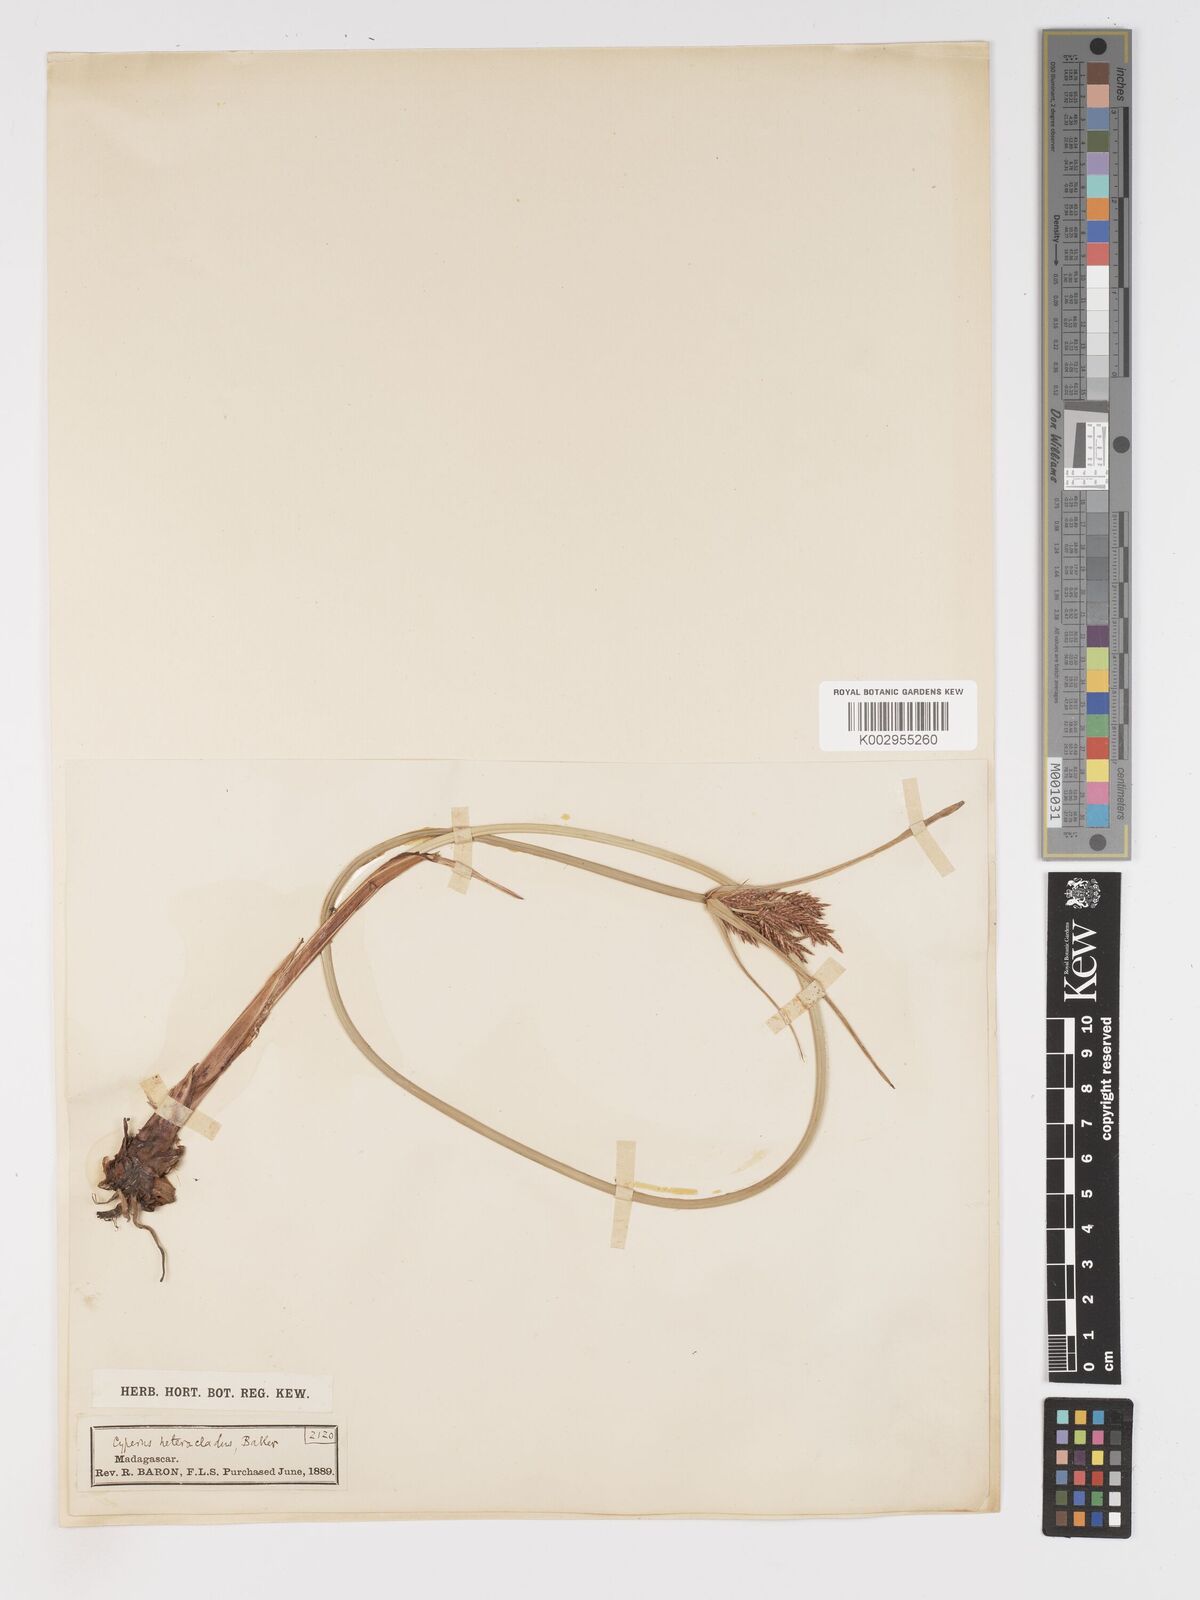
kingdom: Plantae
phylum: Tracheophyta
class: Liliopsida
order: Poales
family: Cyperaceae
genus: Cyperus
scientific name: Cyperus heterocladus
